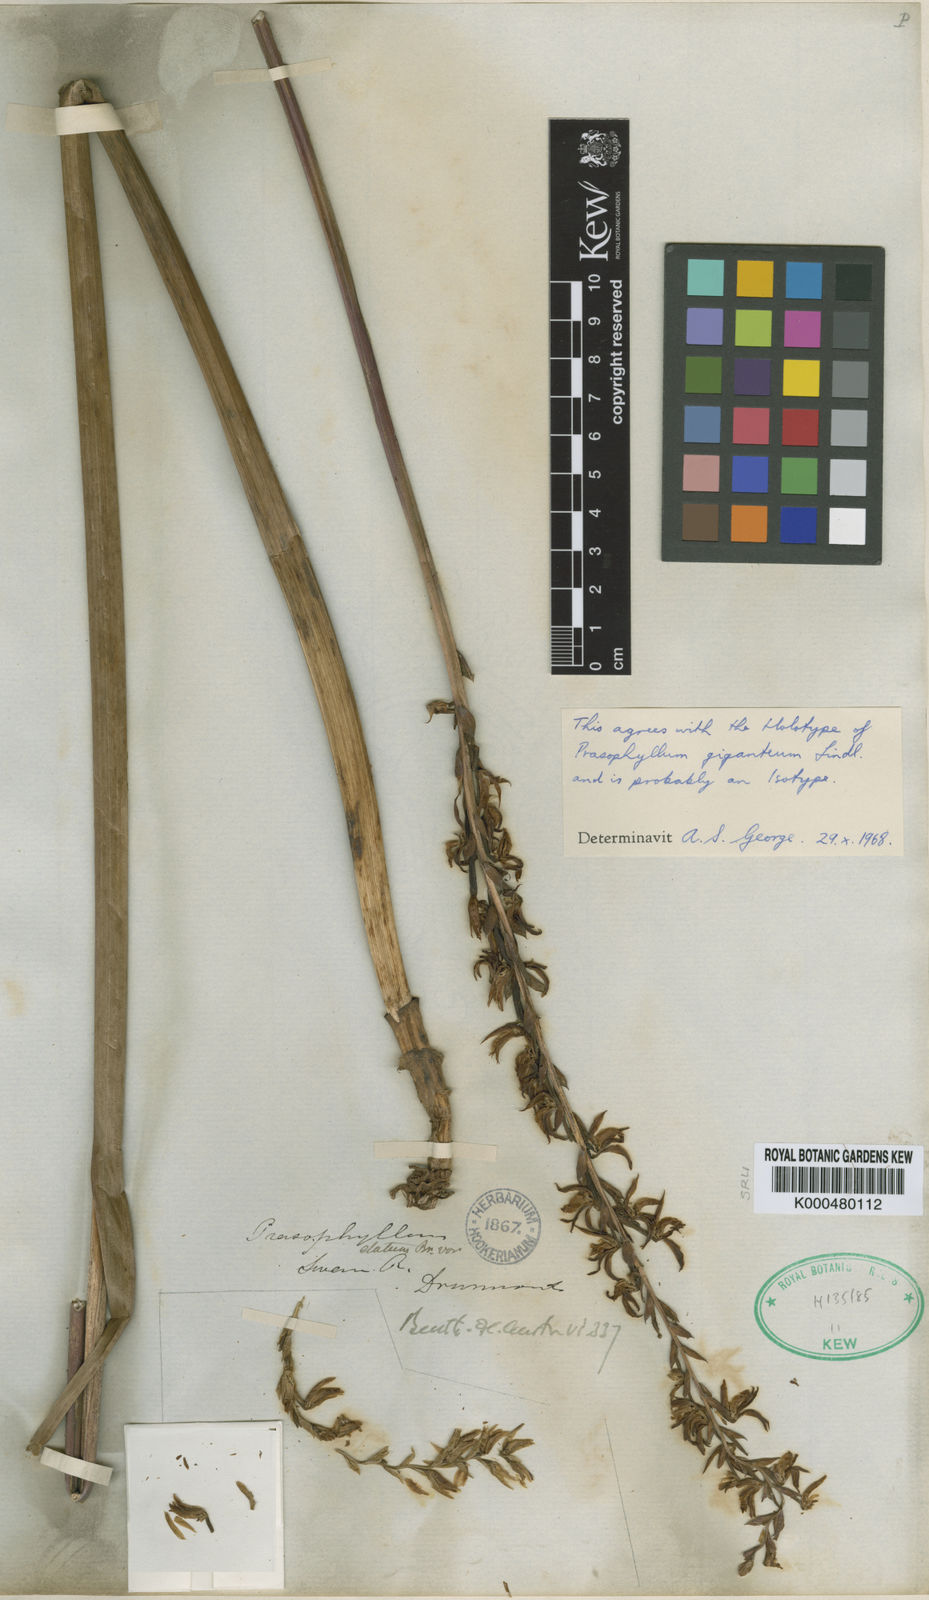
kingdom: Plantae
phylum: Tracheophyta
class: Liliopsida
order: Asparagales
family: Orchidaceae
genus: Prasophyllum
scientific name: Prasophyllum giganteum
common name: Bronze leek orchid
